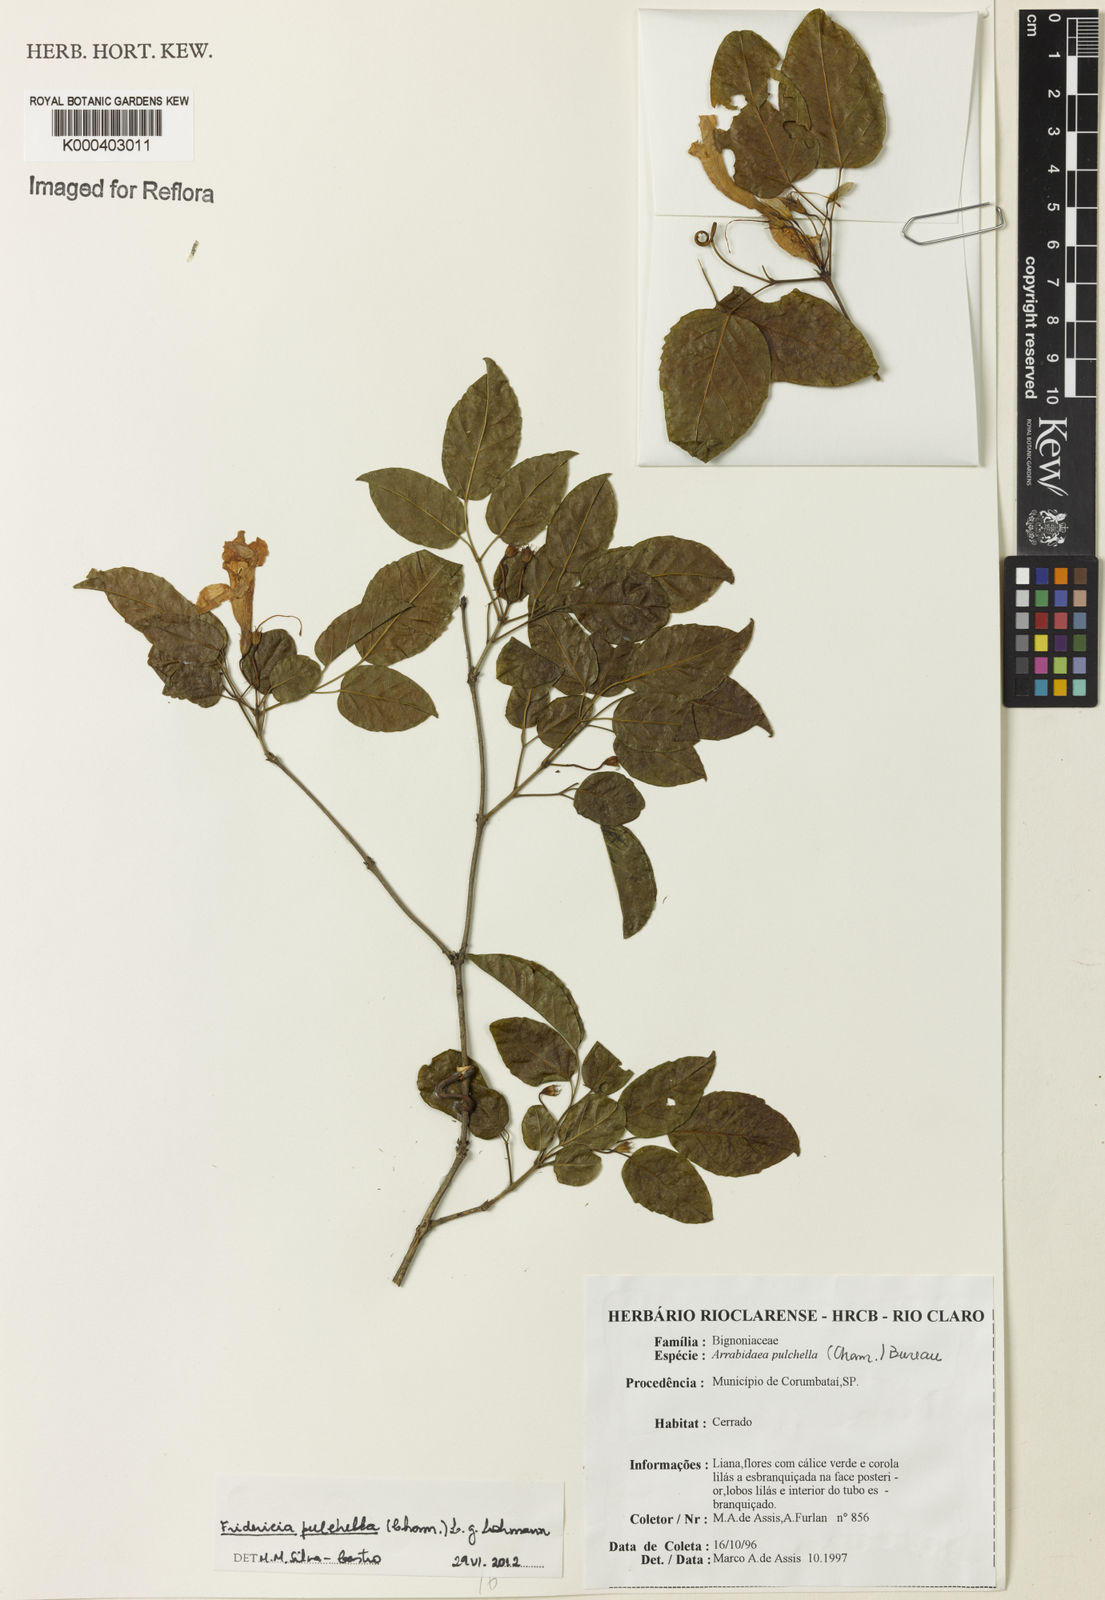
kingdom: Plantae
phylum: Tracheophyta
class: Magnoliopsida
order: Lamiales
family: Bignoniaceae
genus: Fridericia
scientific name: Fridericia
